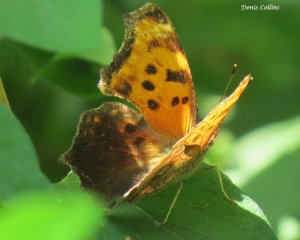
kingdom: Animalia
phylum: Arthropoda
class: Insecta
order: Lepidoptera
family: Nymphalidae
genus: Polygonia
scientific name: Polygonia comma
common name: Eastern Comma
